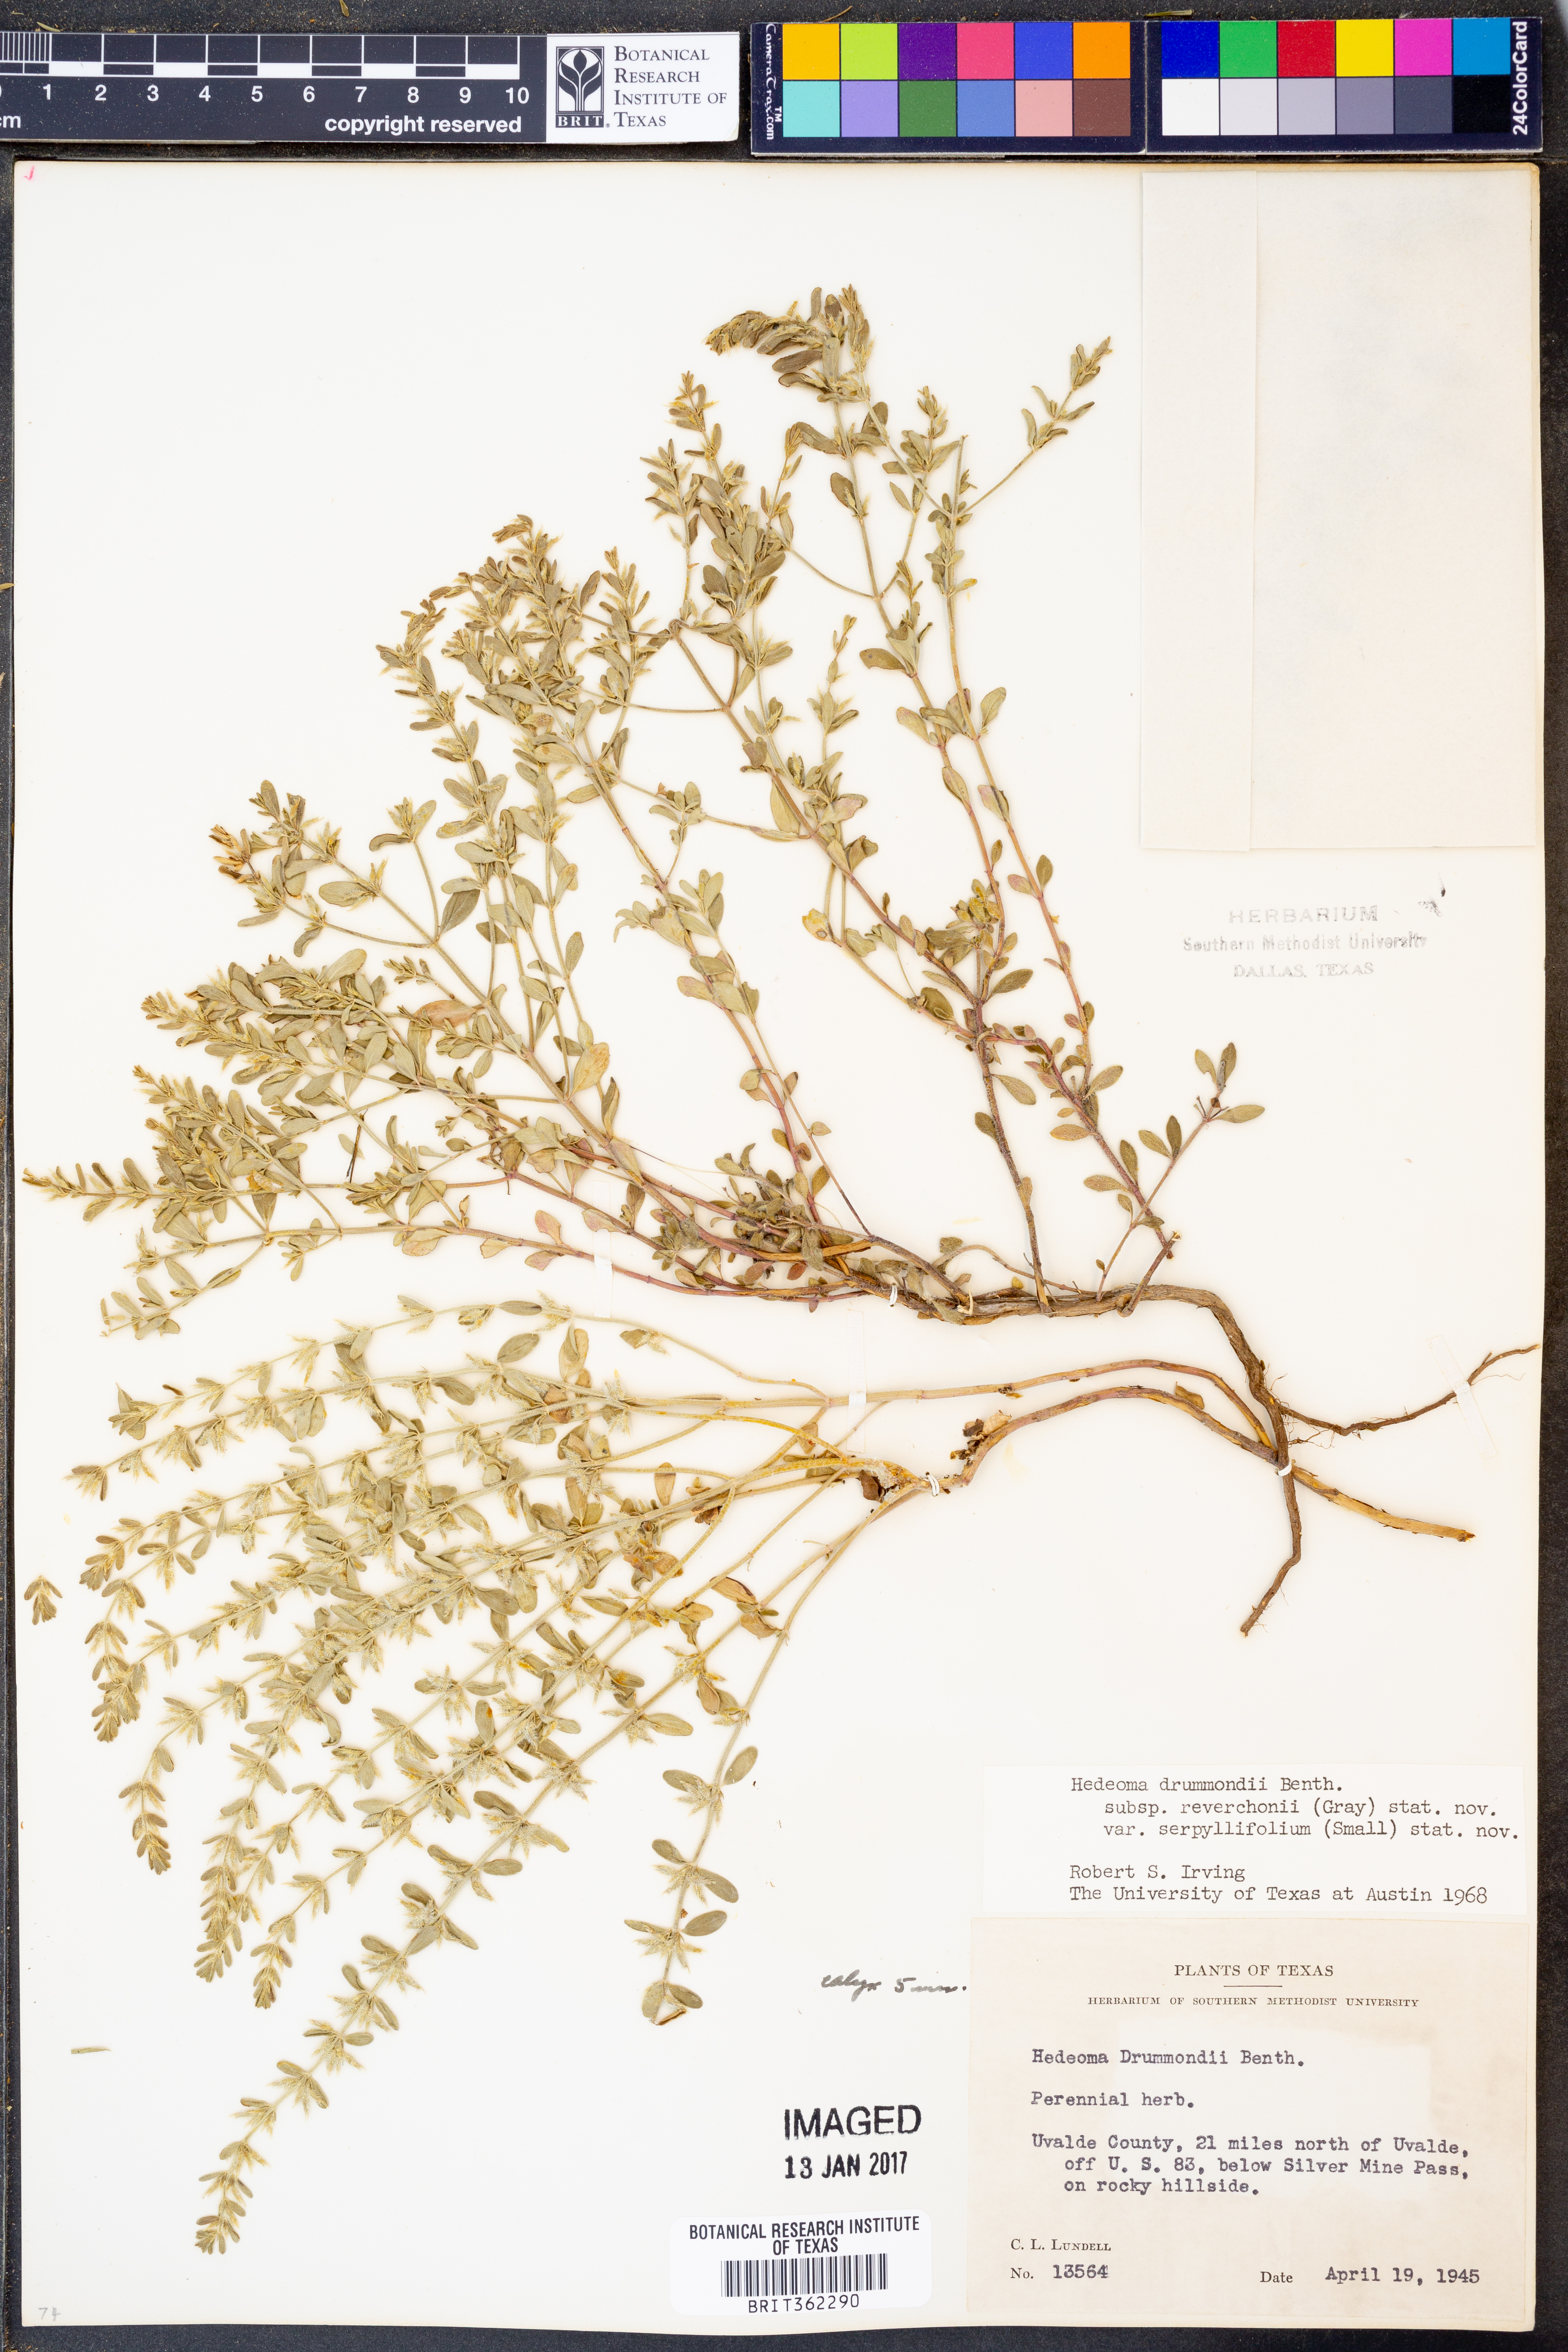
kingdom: Plantae
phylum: Tracheophyta
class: Magnoliopsida
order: Lamiales
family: Lamiaceae
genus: Hedeoma
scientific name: Hedeoma reverchonii
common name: Reverchon's false penny-royal
